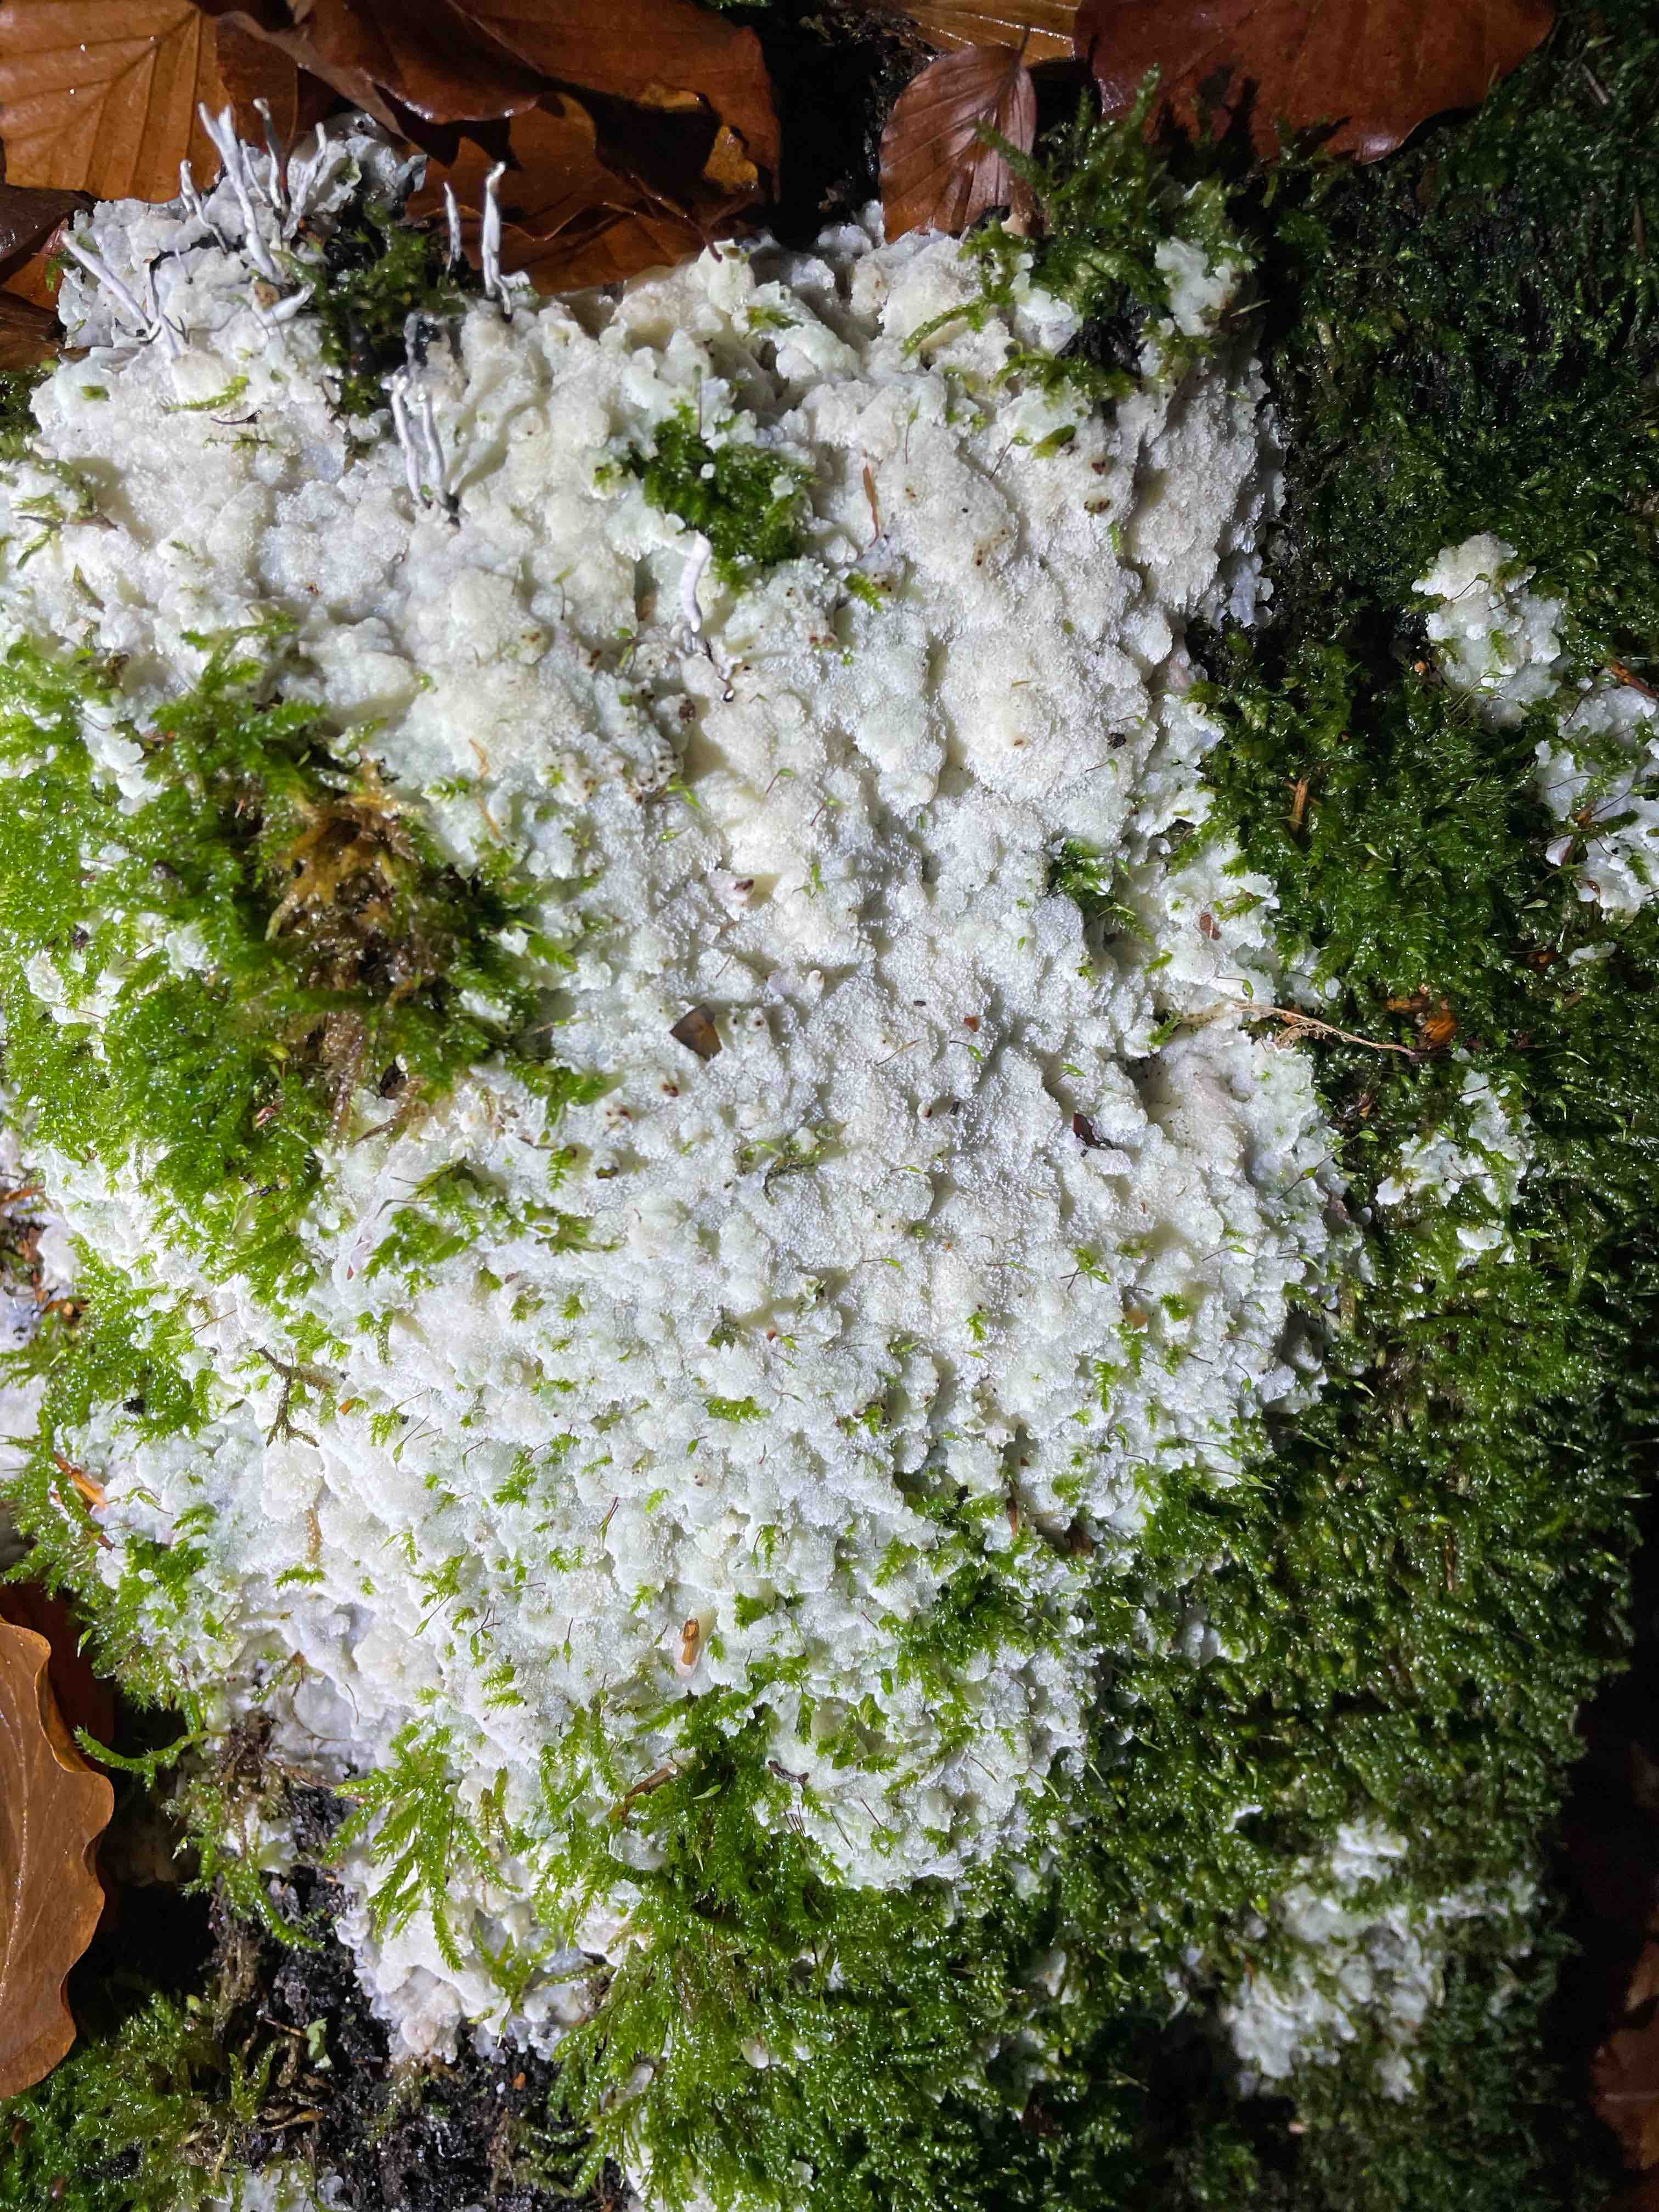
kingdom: Fungi
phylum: Basidiomycota
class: Agaricomycetes
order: Polyporales
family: Meruliaceae
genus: Physisporinus
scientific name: Physisporinus vitreus
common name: mastesvamp
